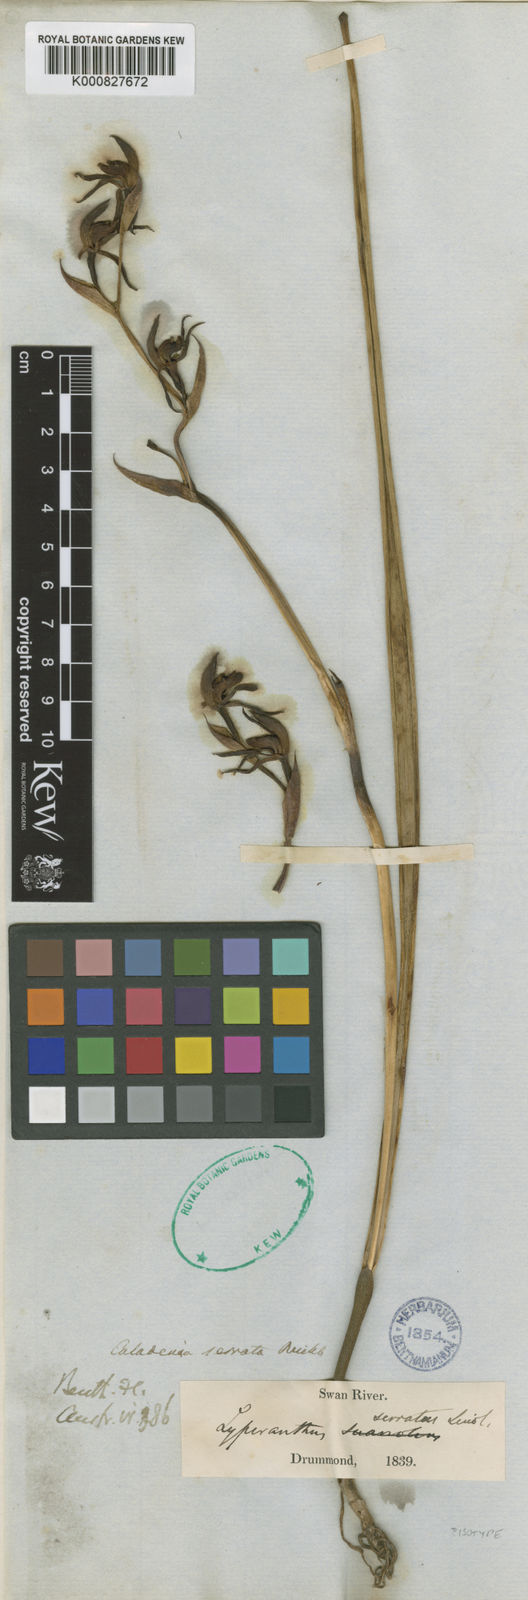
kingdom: Plantae
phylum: Tracheophyta
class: Liliopsida
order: Asparagales
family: Orchidaceae
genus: Lyperanthus
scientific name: Lyperanthus serratus
